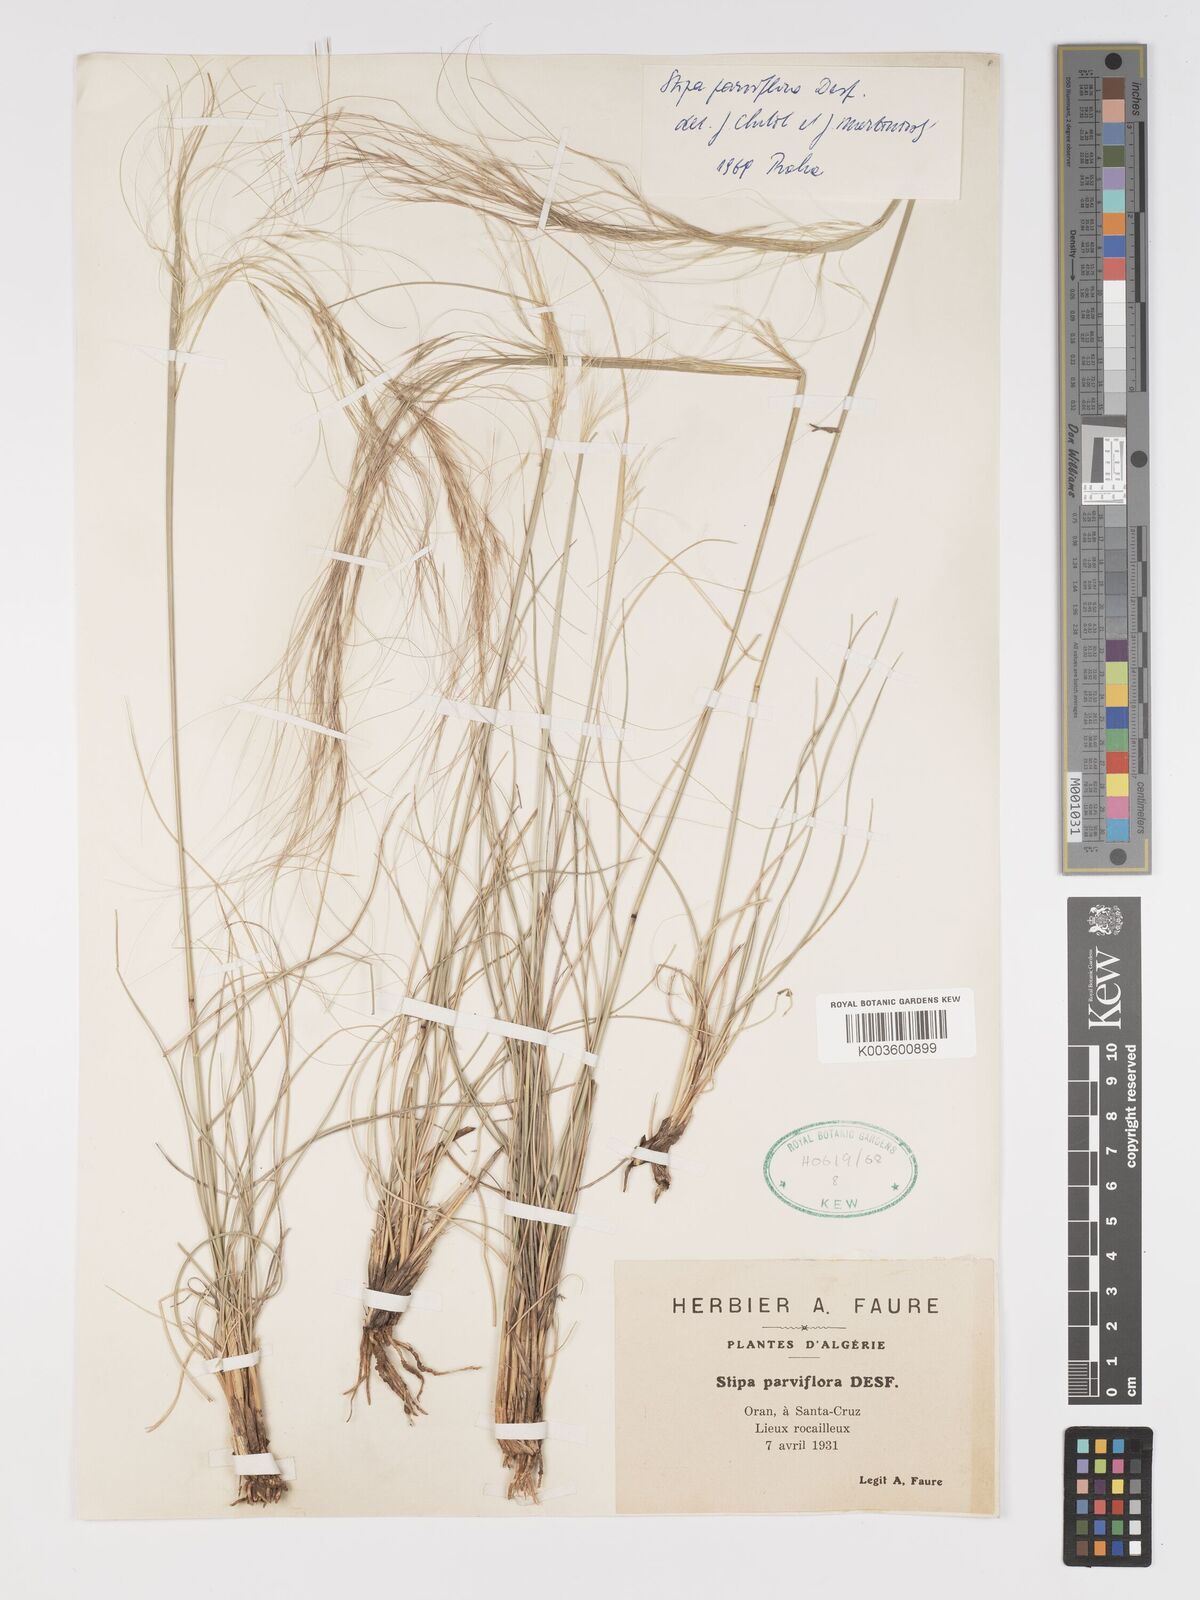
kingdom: Plantae
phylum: Tracheophyta
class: Liliopsida
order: Poales
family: Poaceae
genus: Achnatherum
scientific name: Achnatherum parviflorum
